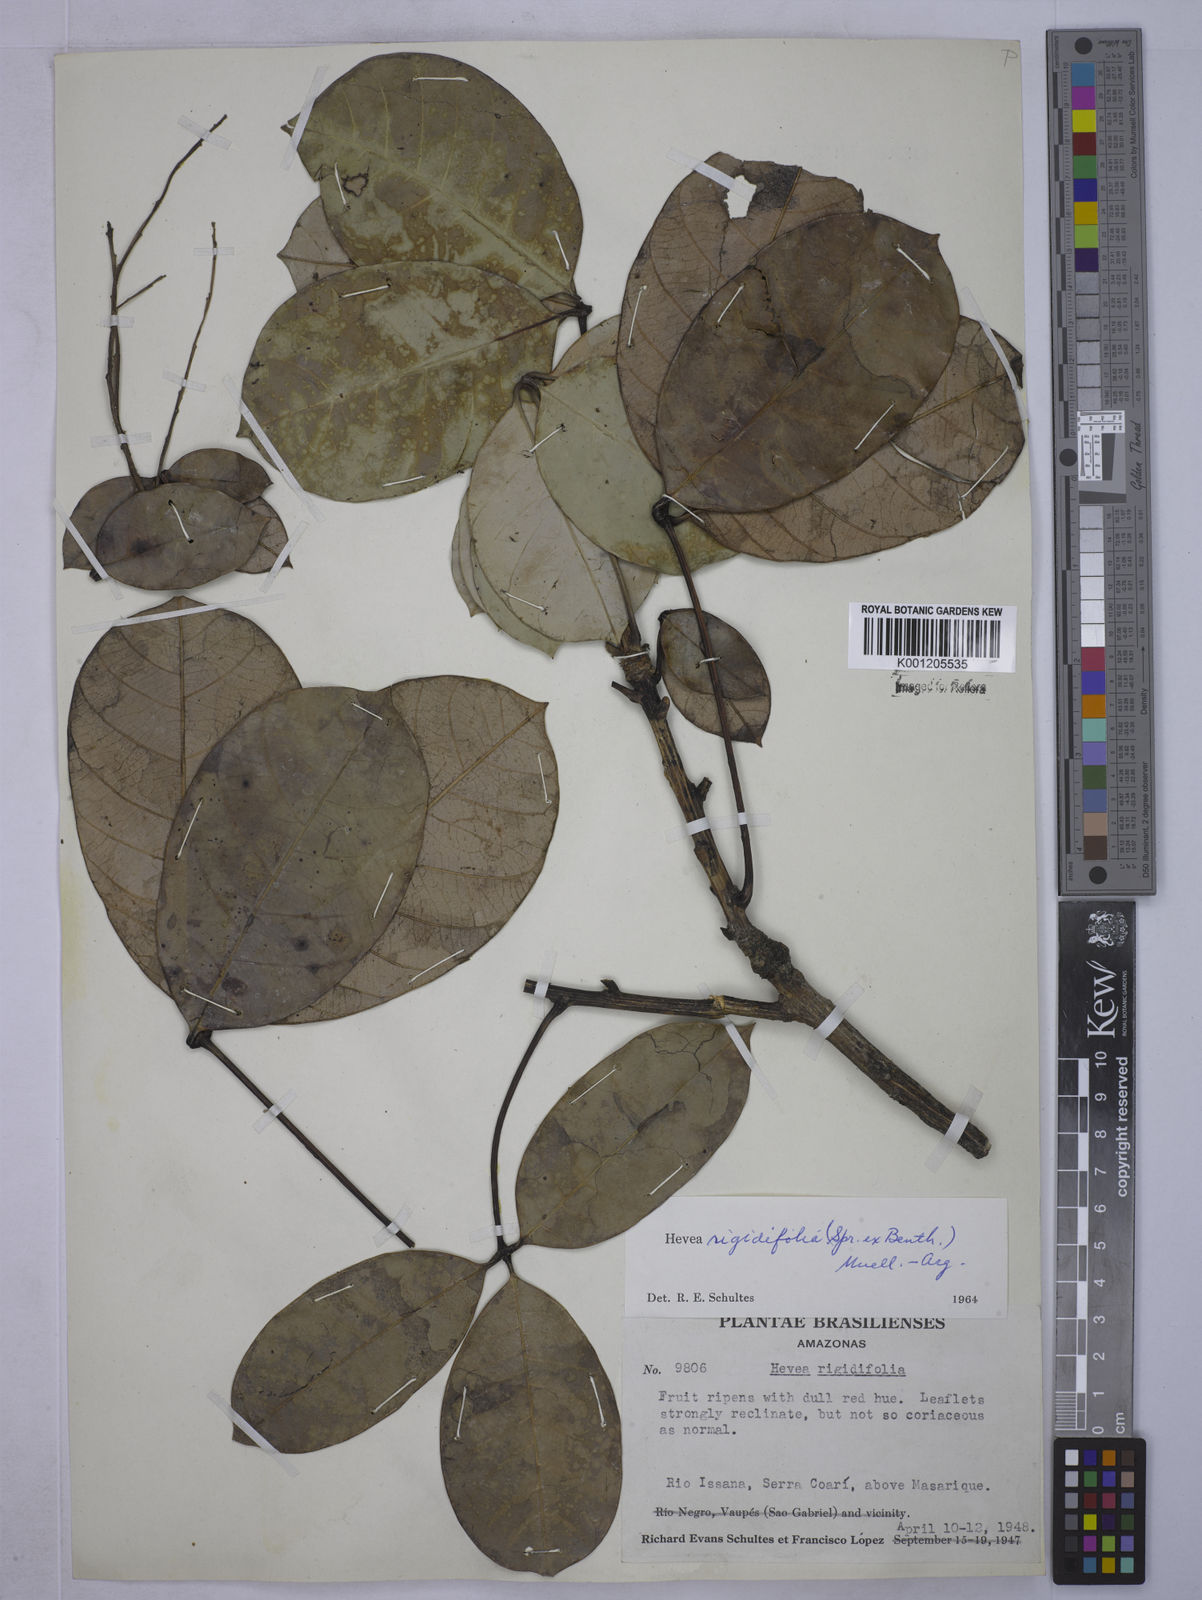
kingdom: Plantae
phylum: Tracheophyta
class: Magnoliopsida
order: Malpighiales
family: Euphorbiaceae
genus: Hevea
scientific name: Hevea
